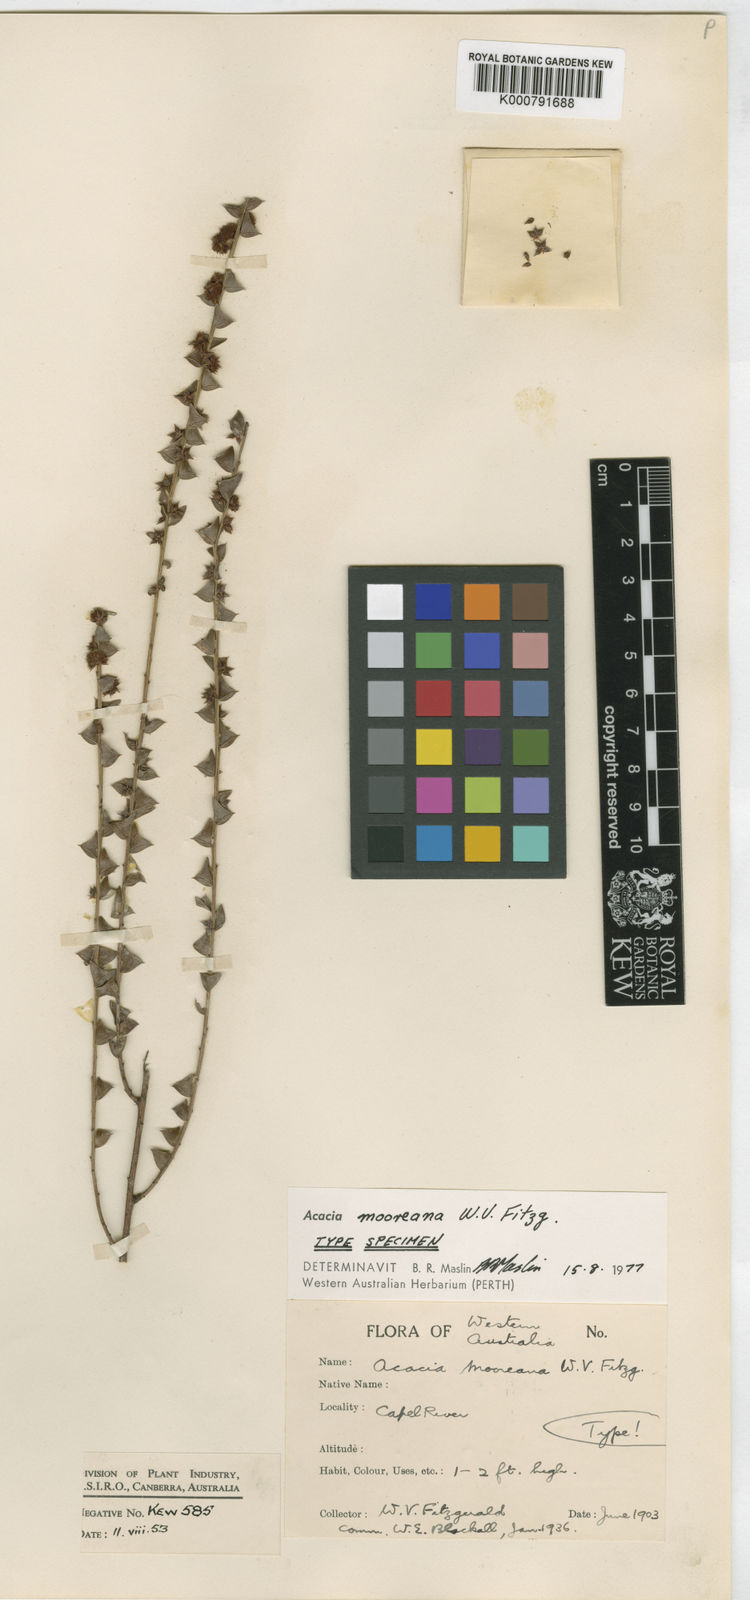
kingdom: Plantae
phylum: Tracheophyta
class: Magnoliopsida
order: Fabales
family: Fabaceae
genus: Acacia
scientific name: Acacia mooreana
